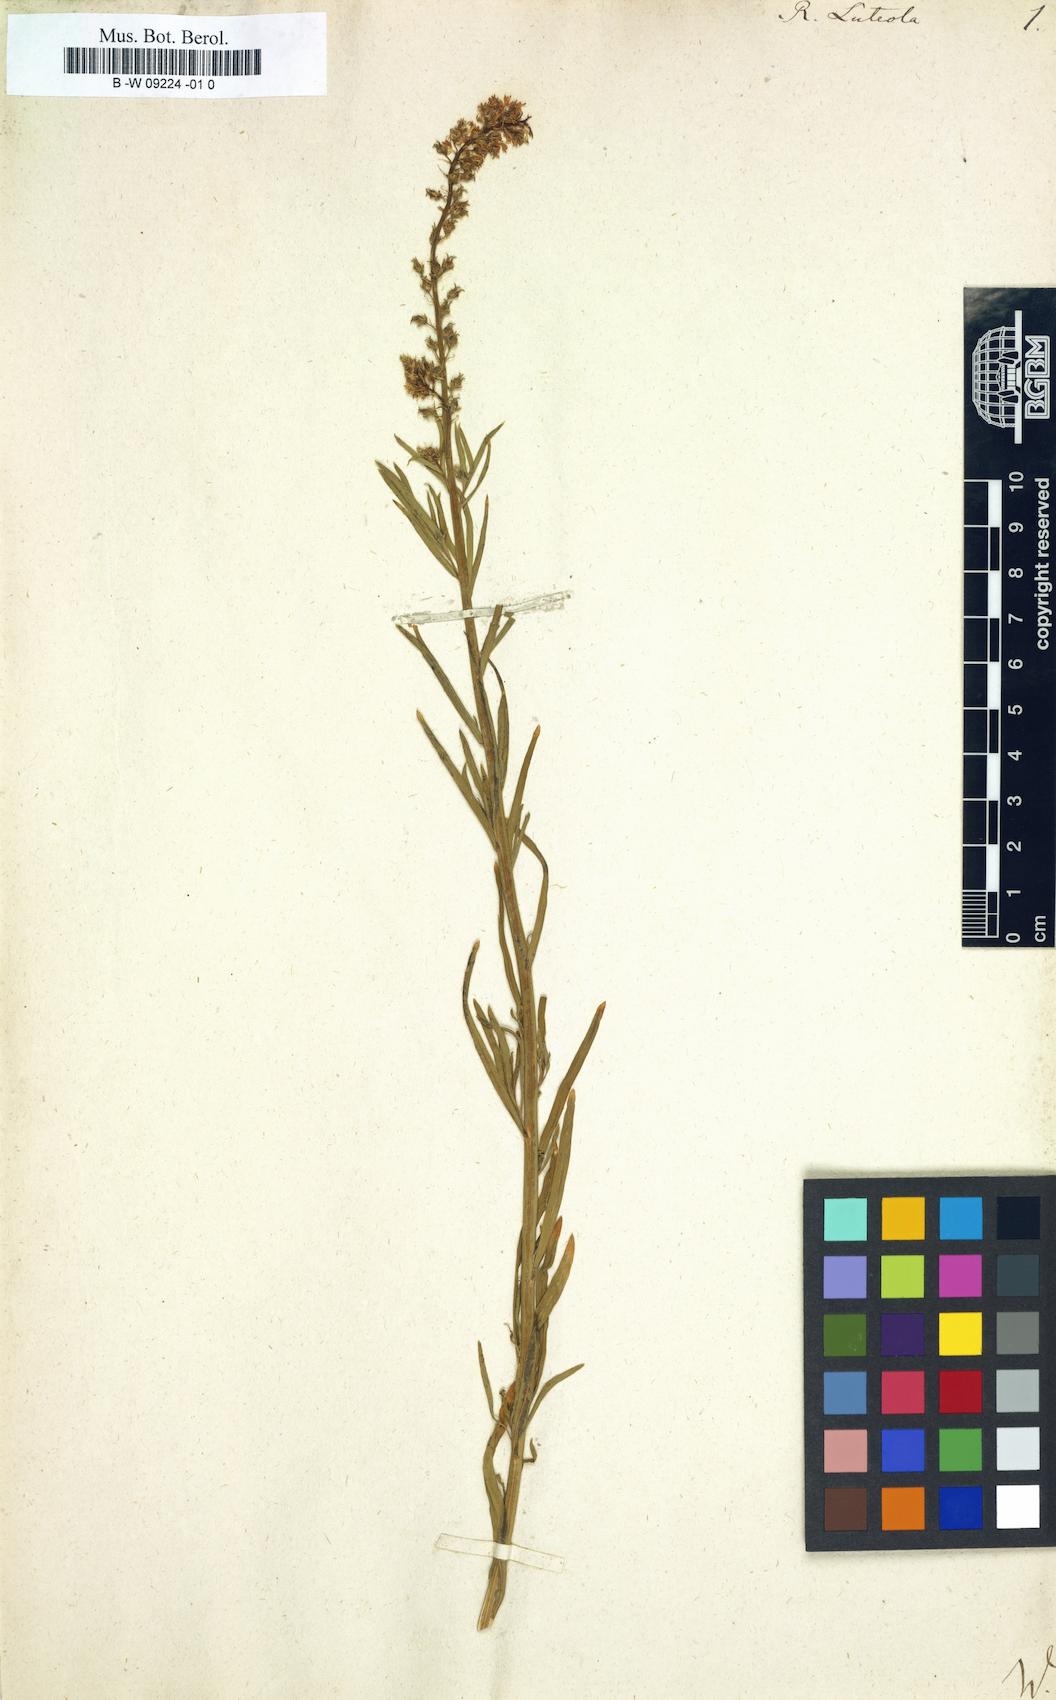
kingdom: Plantae
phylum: Tracheophyta
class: Magnoliopsida
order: Brassicales
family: Resedaceae
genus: Reseda
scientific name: Reseda luteola
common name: Weld
